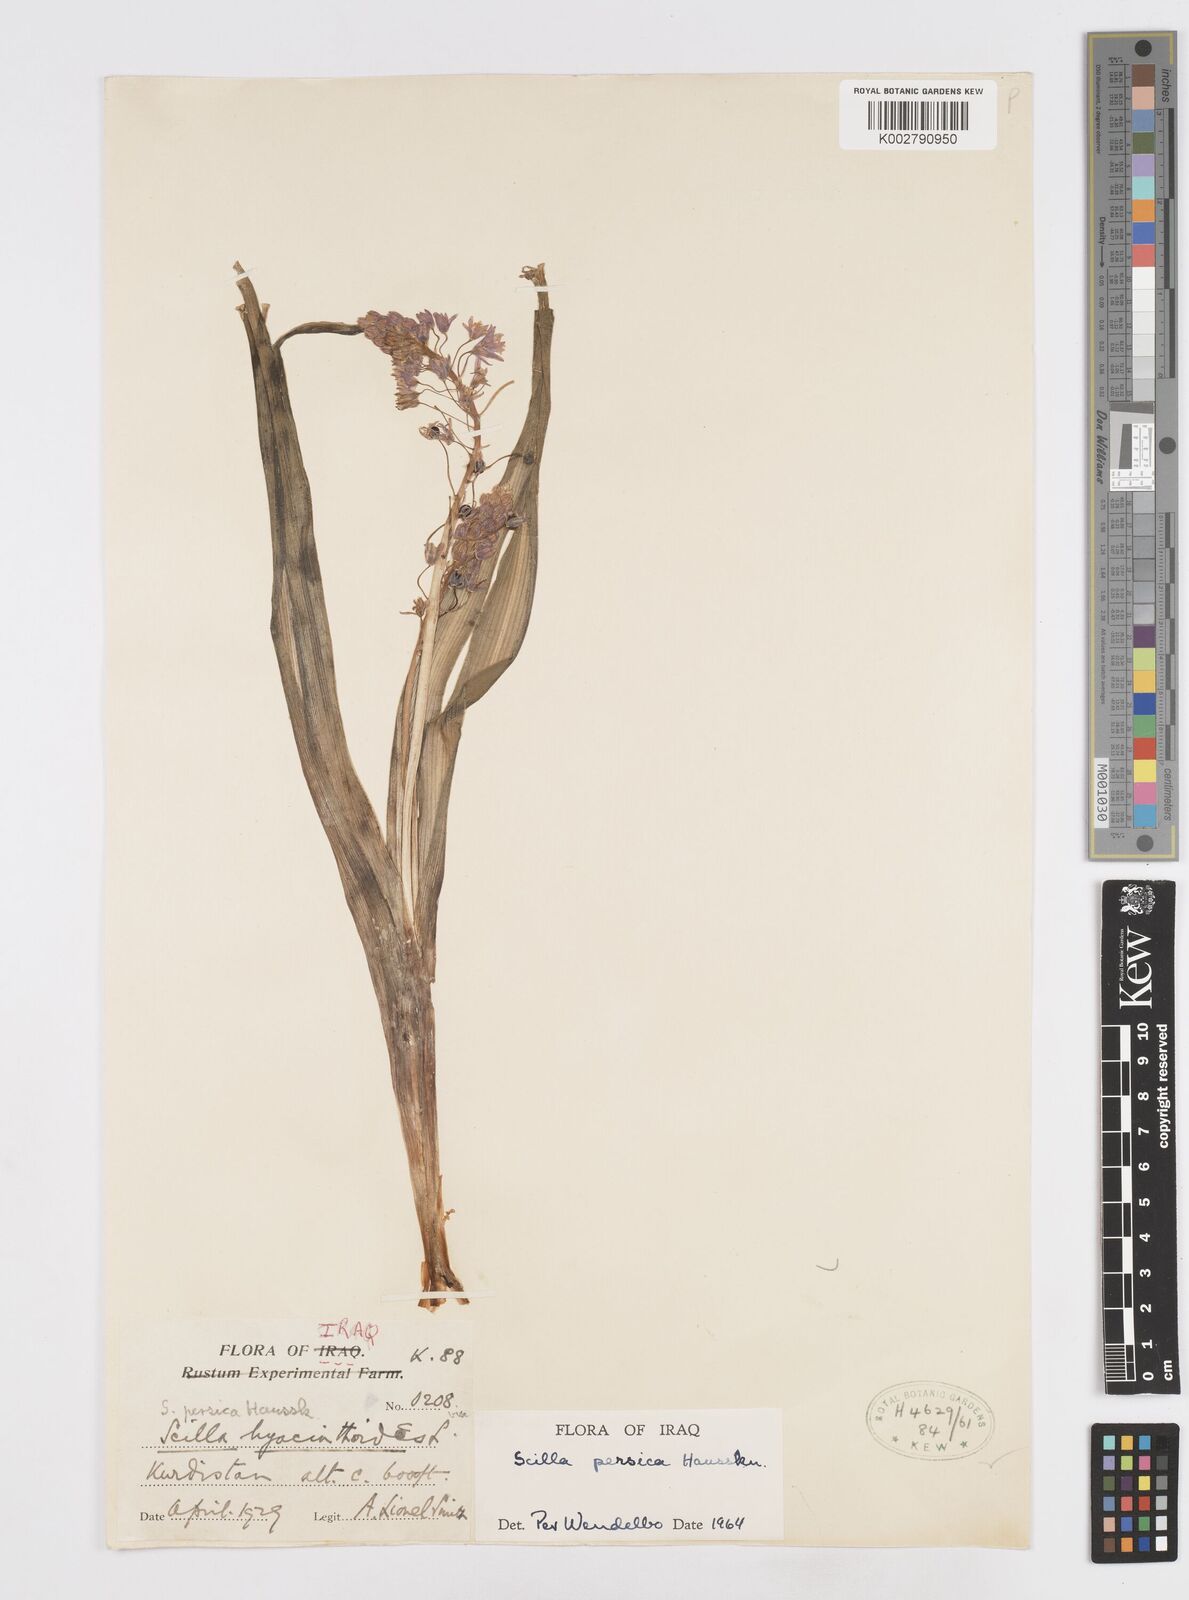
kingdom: Plantae
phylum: Tracheophyta
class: Liliopsida
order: Asparagales
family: Asparagaceae
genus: Zagrosia
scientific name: Zagrosia persica
